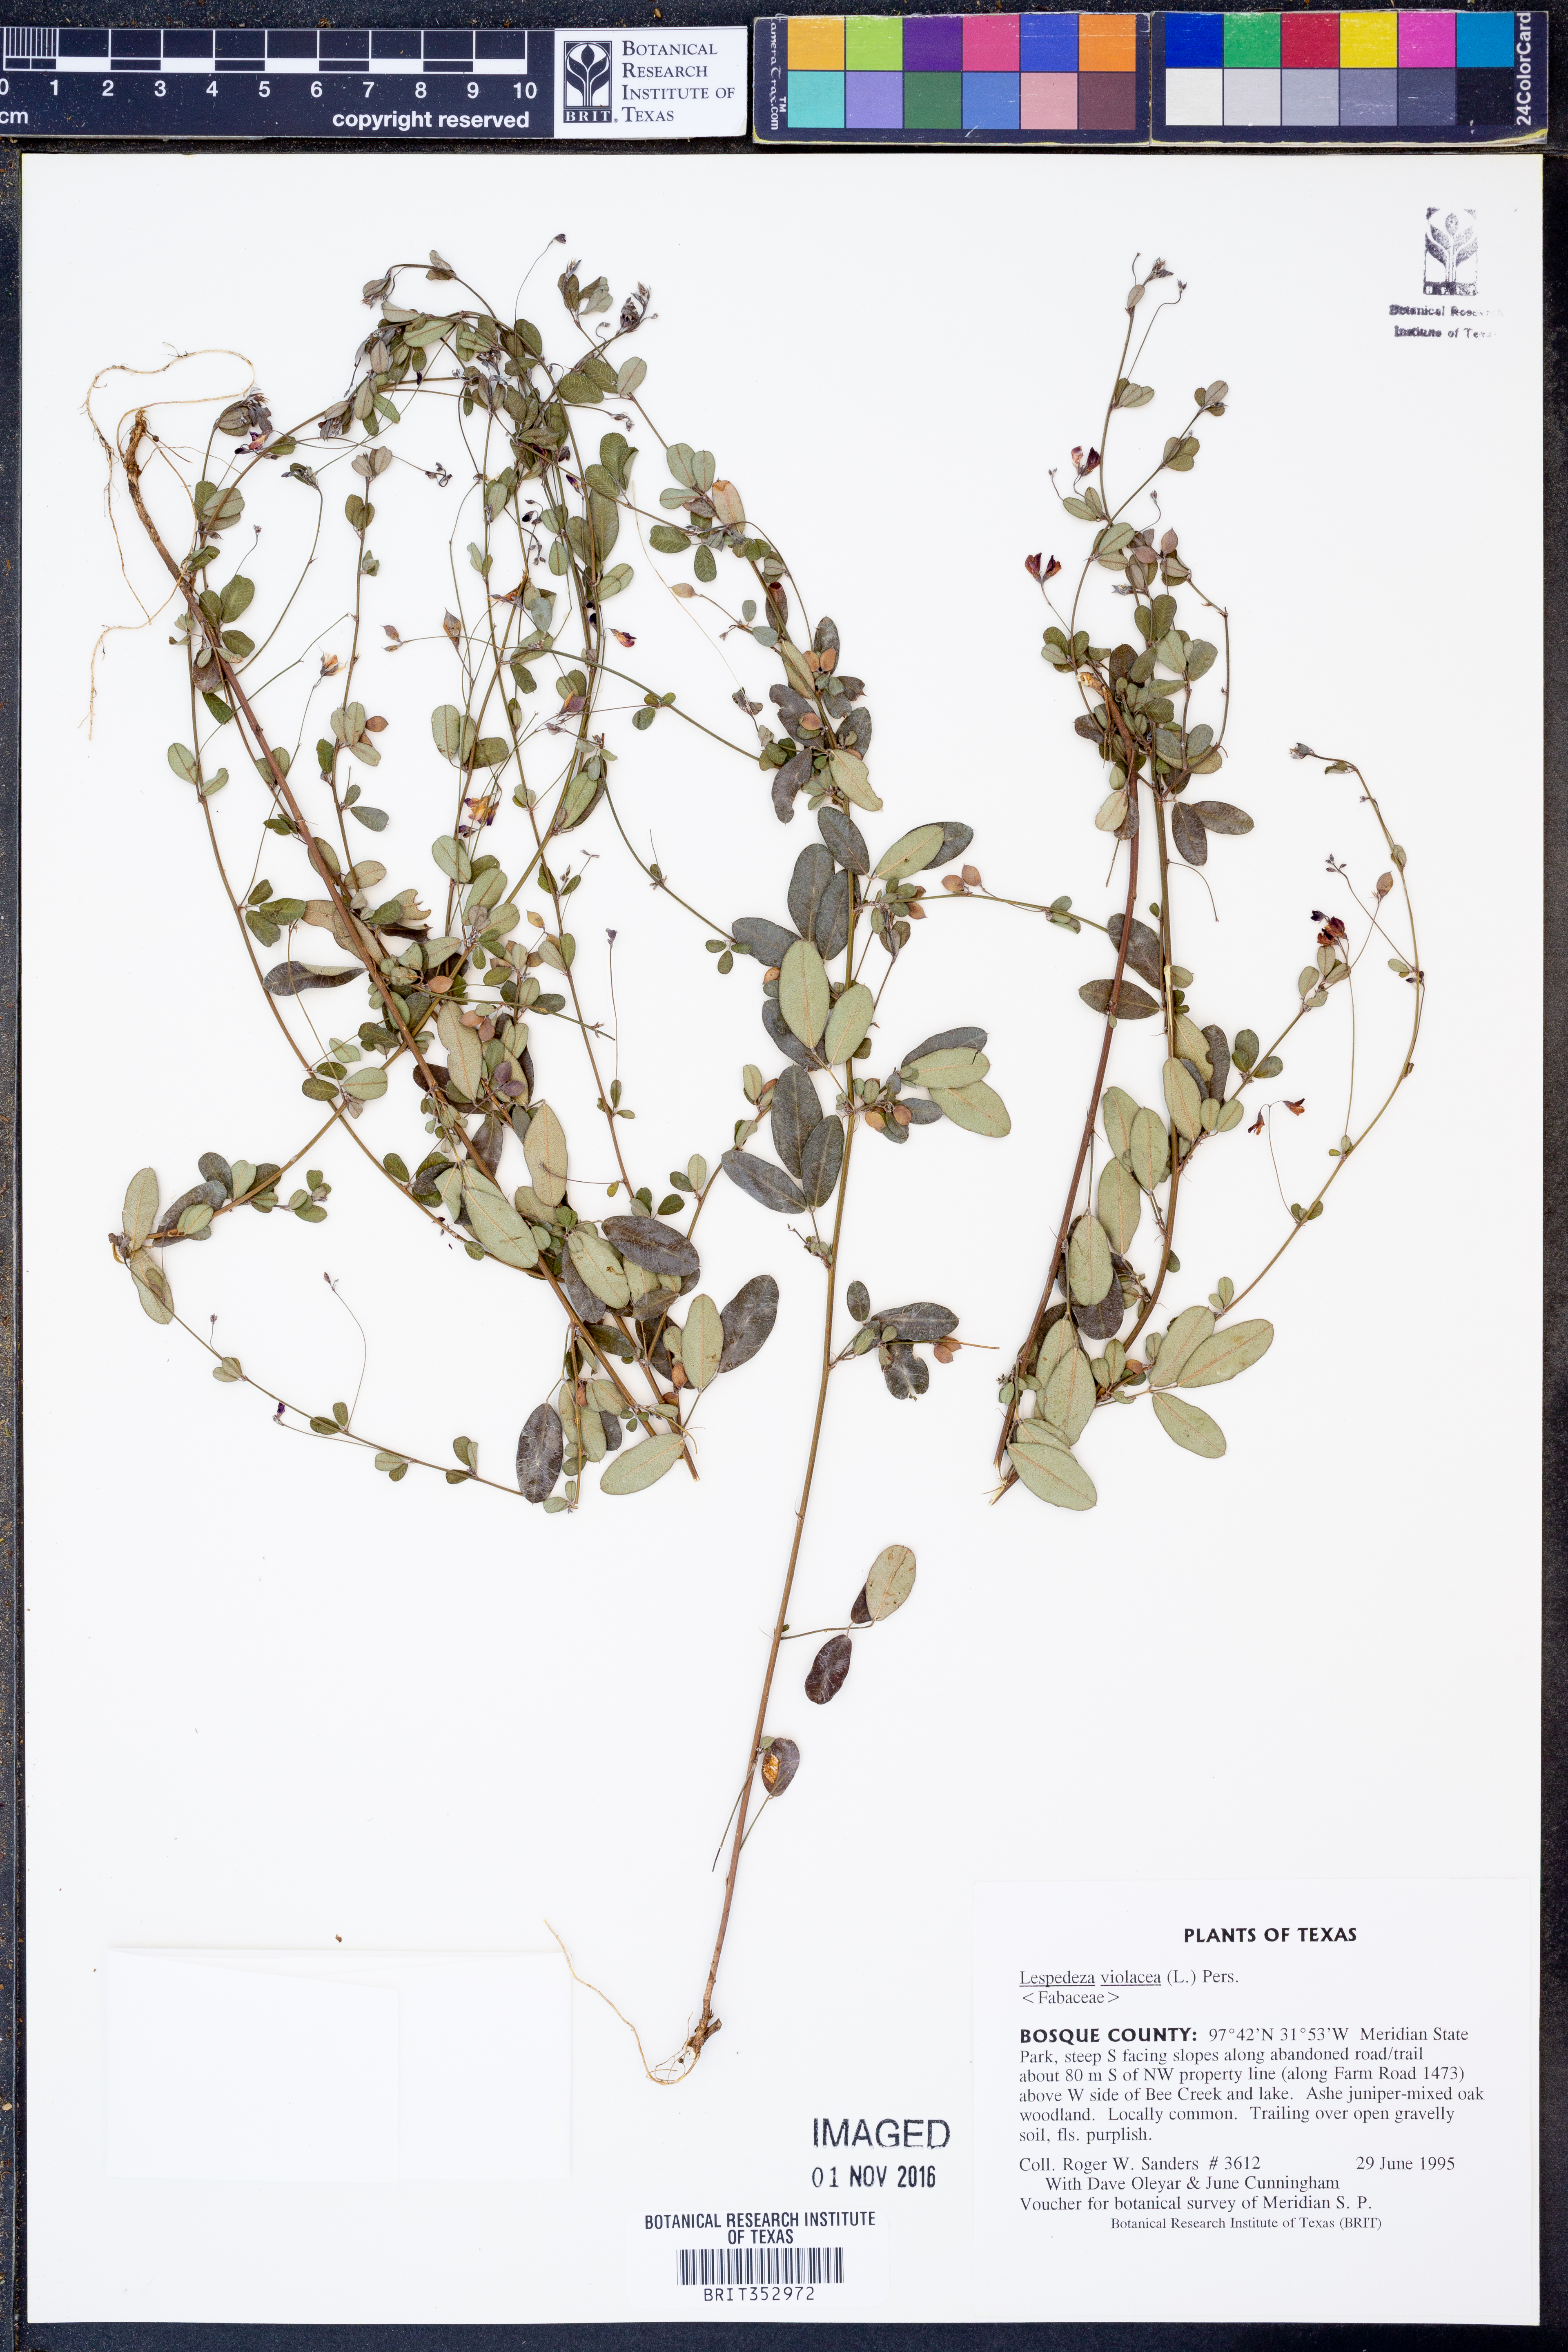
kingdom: Plantae
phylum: Tracheophyta
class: Magnoliopsida
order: Fabales
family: Fabaceae
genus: Lespedeza
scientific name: Lespedeza violacea
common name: Wand bush-clover
